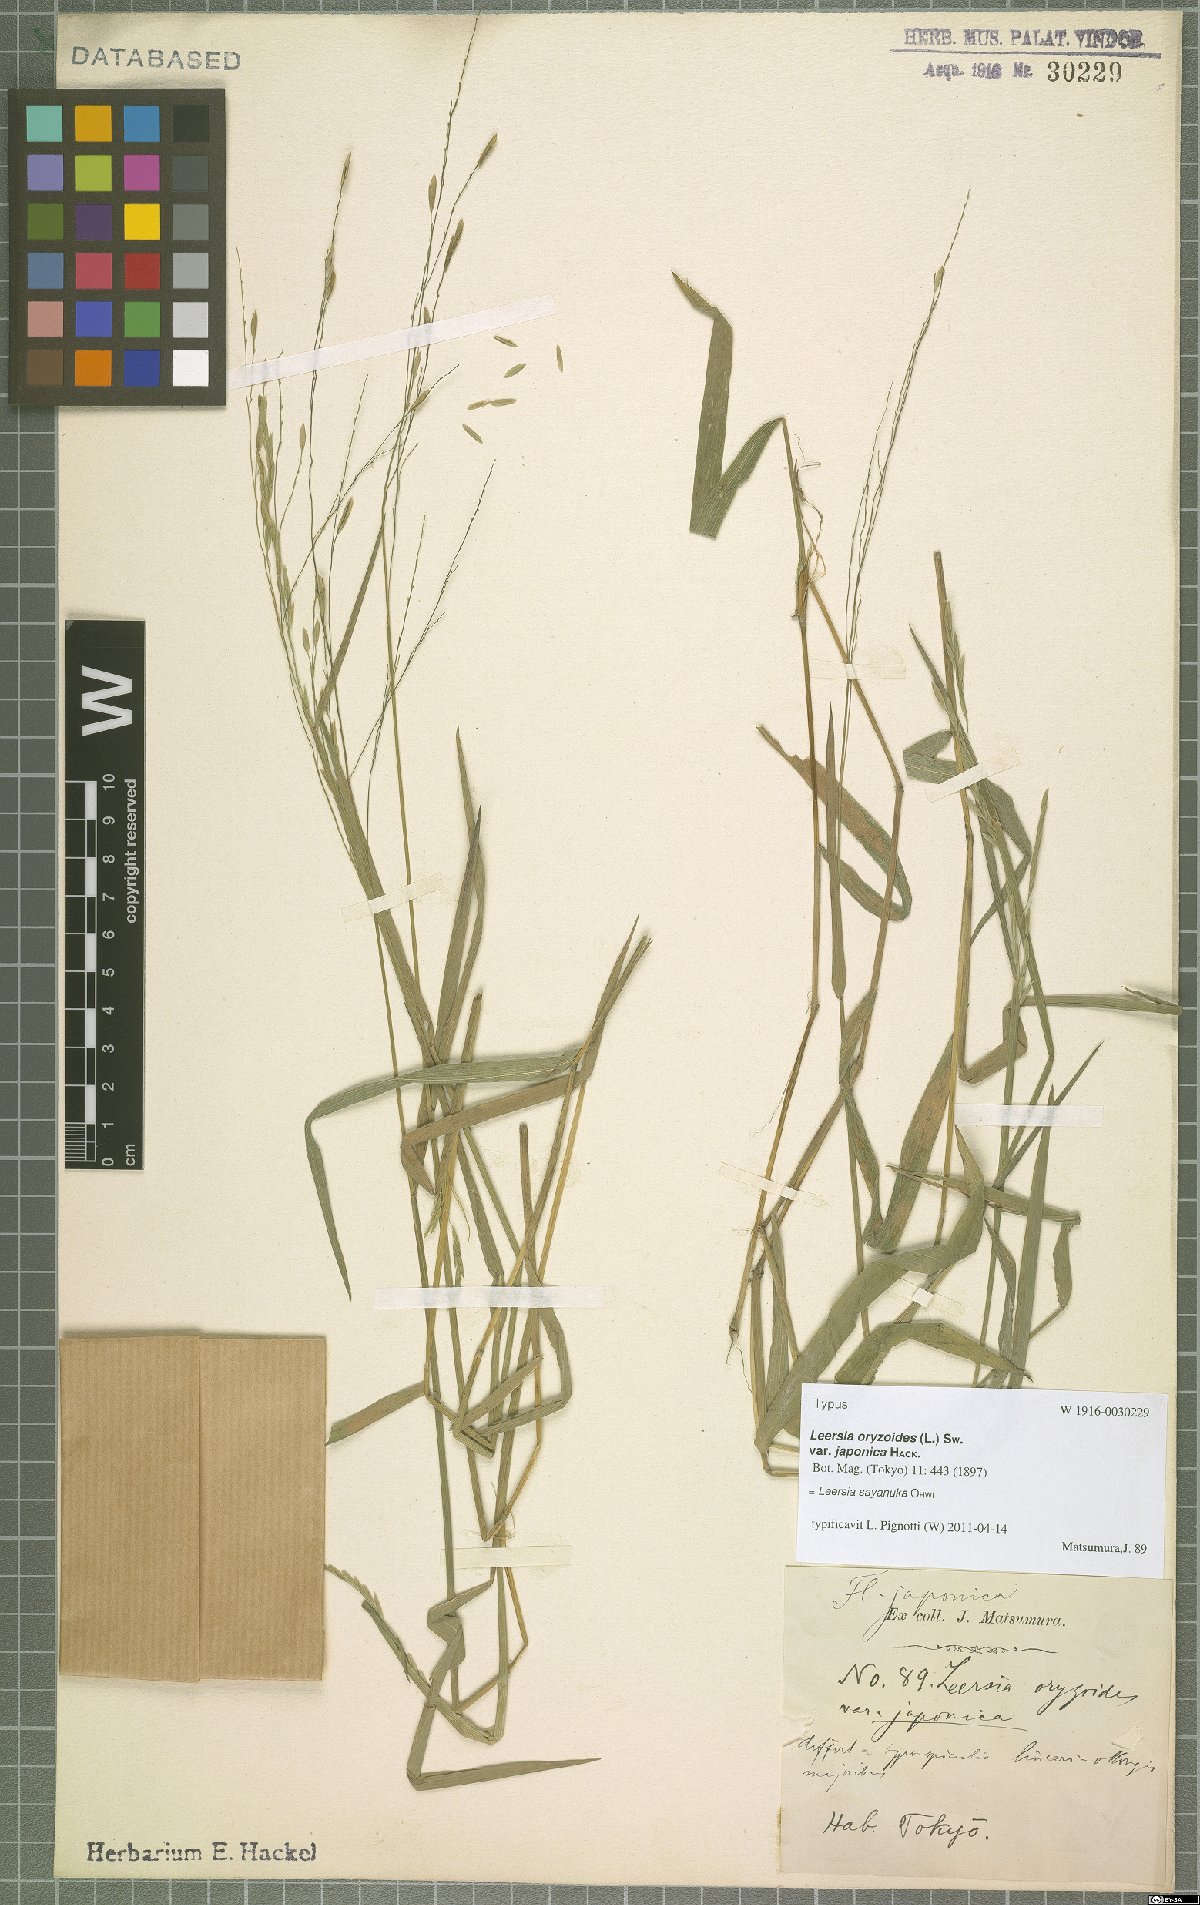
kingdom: Plantae
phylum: Tracheophyta
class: Liliopsida
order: Poales
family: Poaceae
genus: Leersia
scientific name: Leersia sayanuka
